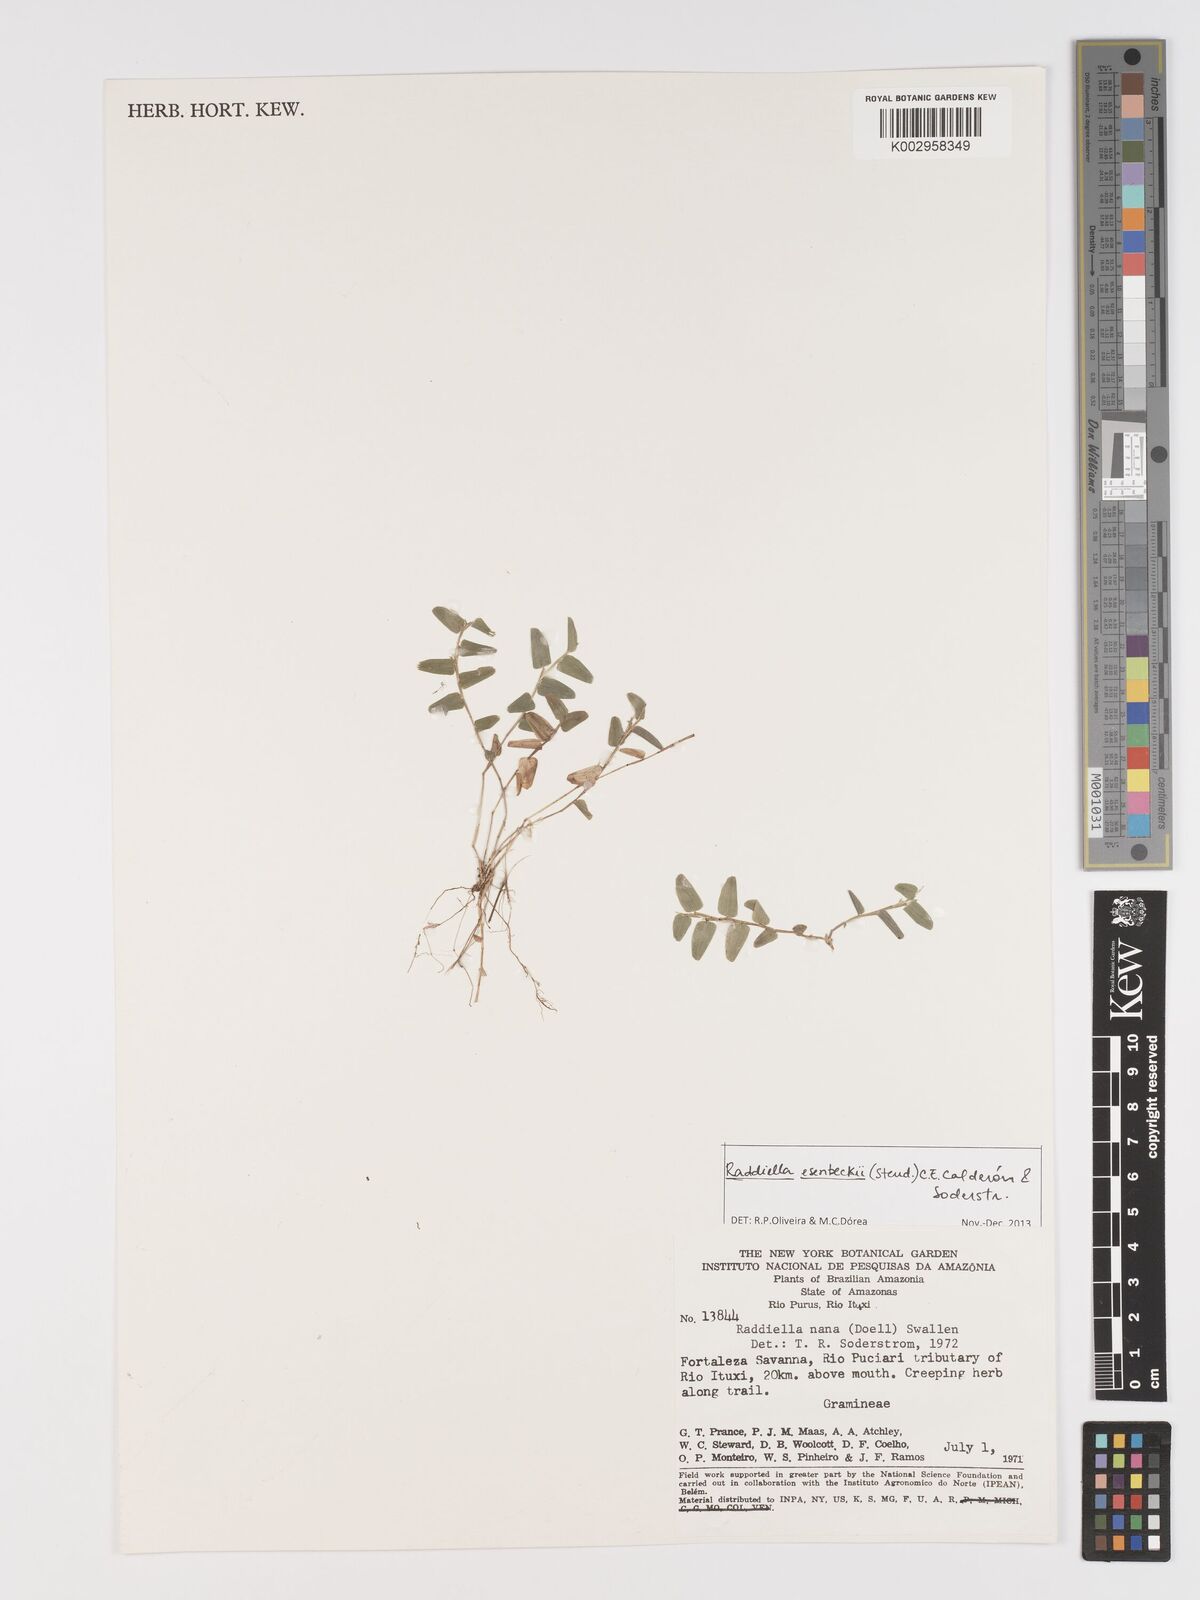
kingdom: Plantae
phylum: Tracheophyta
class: Liliopsida
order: Poales
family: Poaceae
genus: Raddiella
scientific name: Raddiella esenbeckii
